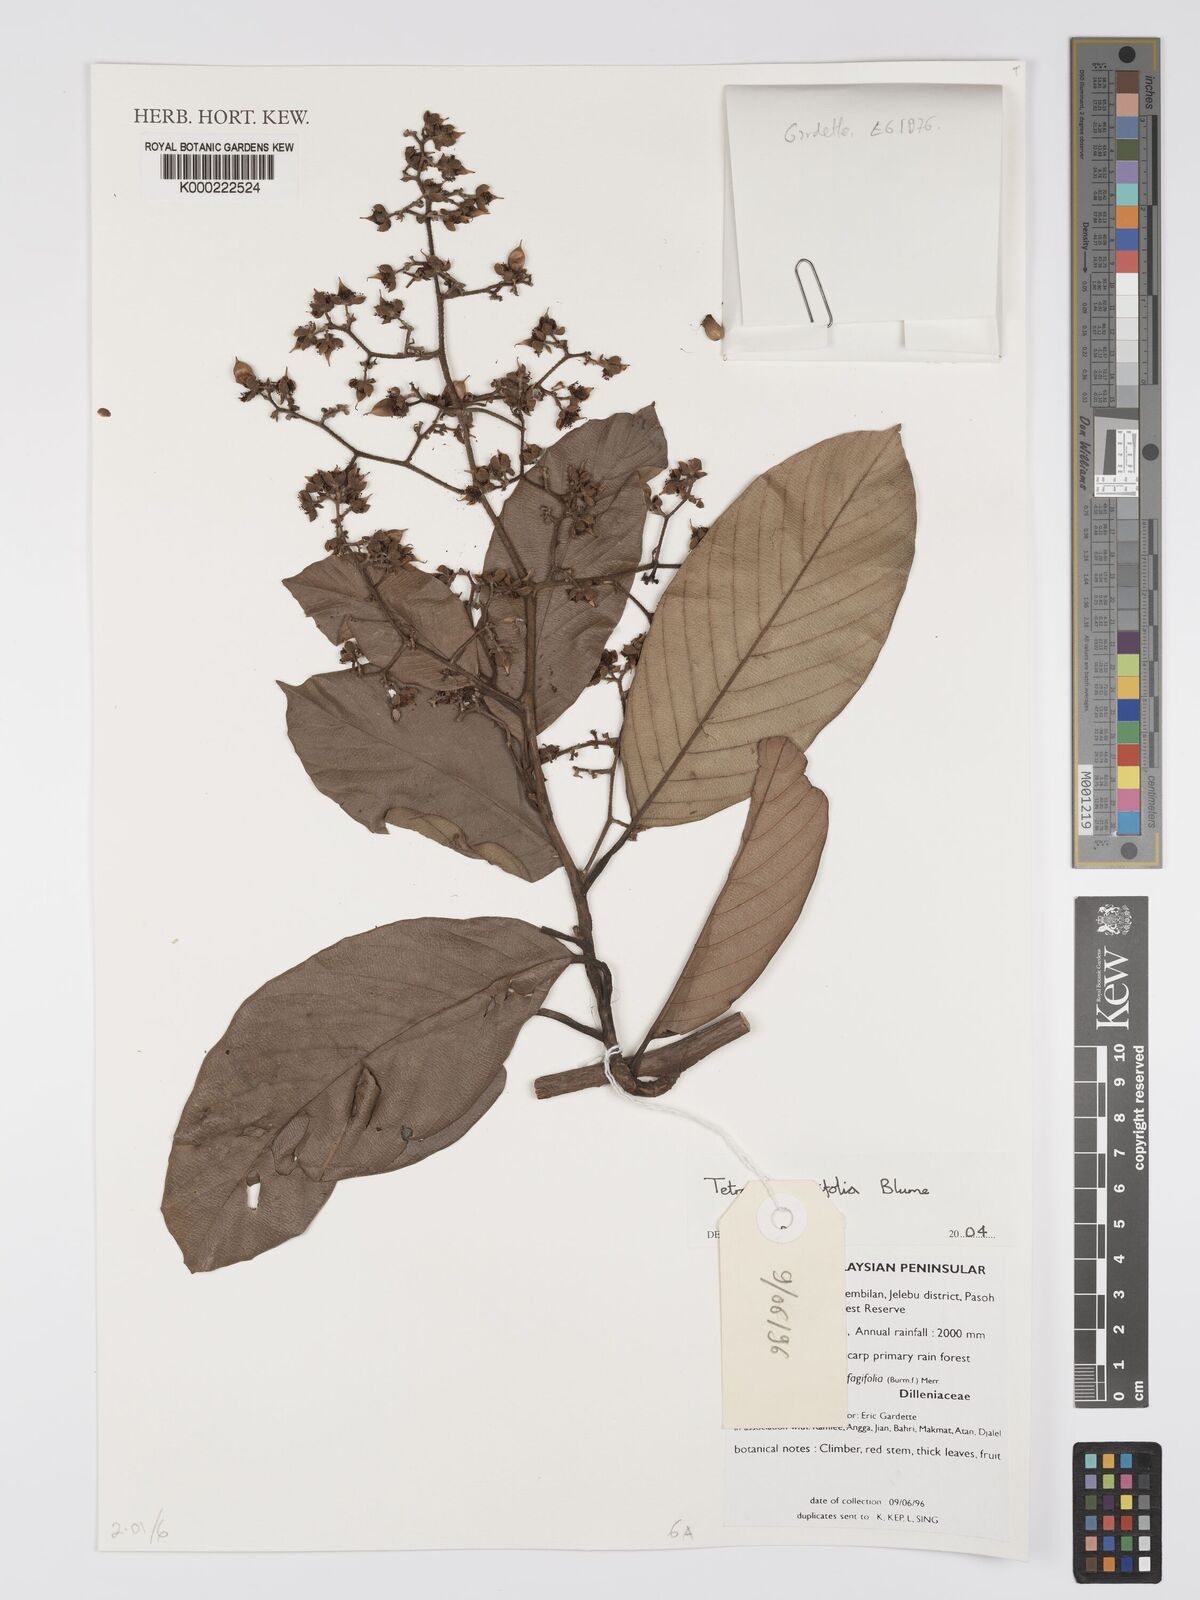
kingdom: Plantae
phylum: Tracheophyta
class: Magnoliopsida
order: Dilleniales
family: Dilleniaceae
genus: Tetracera
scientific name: Tetracera fagifolia
